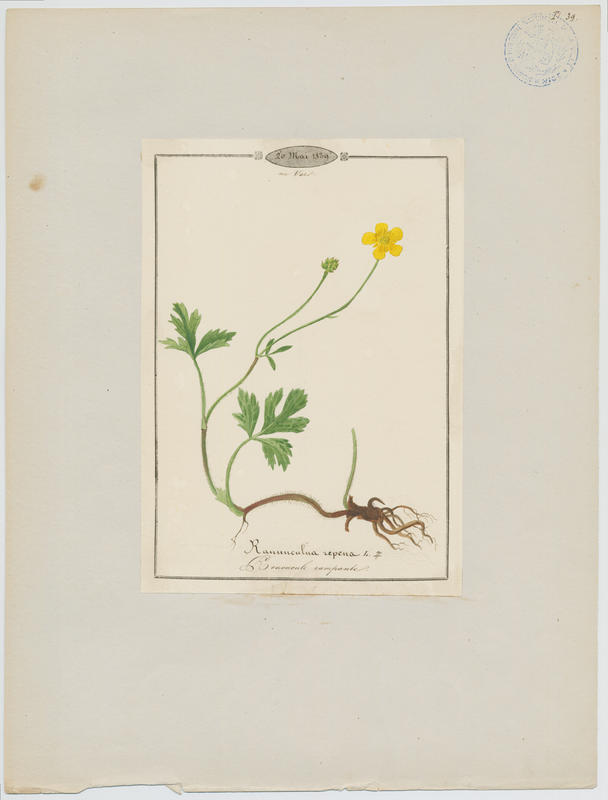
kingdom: Plantae
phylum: Tracheophyta
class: Magnoliopsida
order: Ranunculales
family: Ranunculaceae
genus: Ranunculus
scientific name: Ranunculus repens
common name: Creeping buttercup
